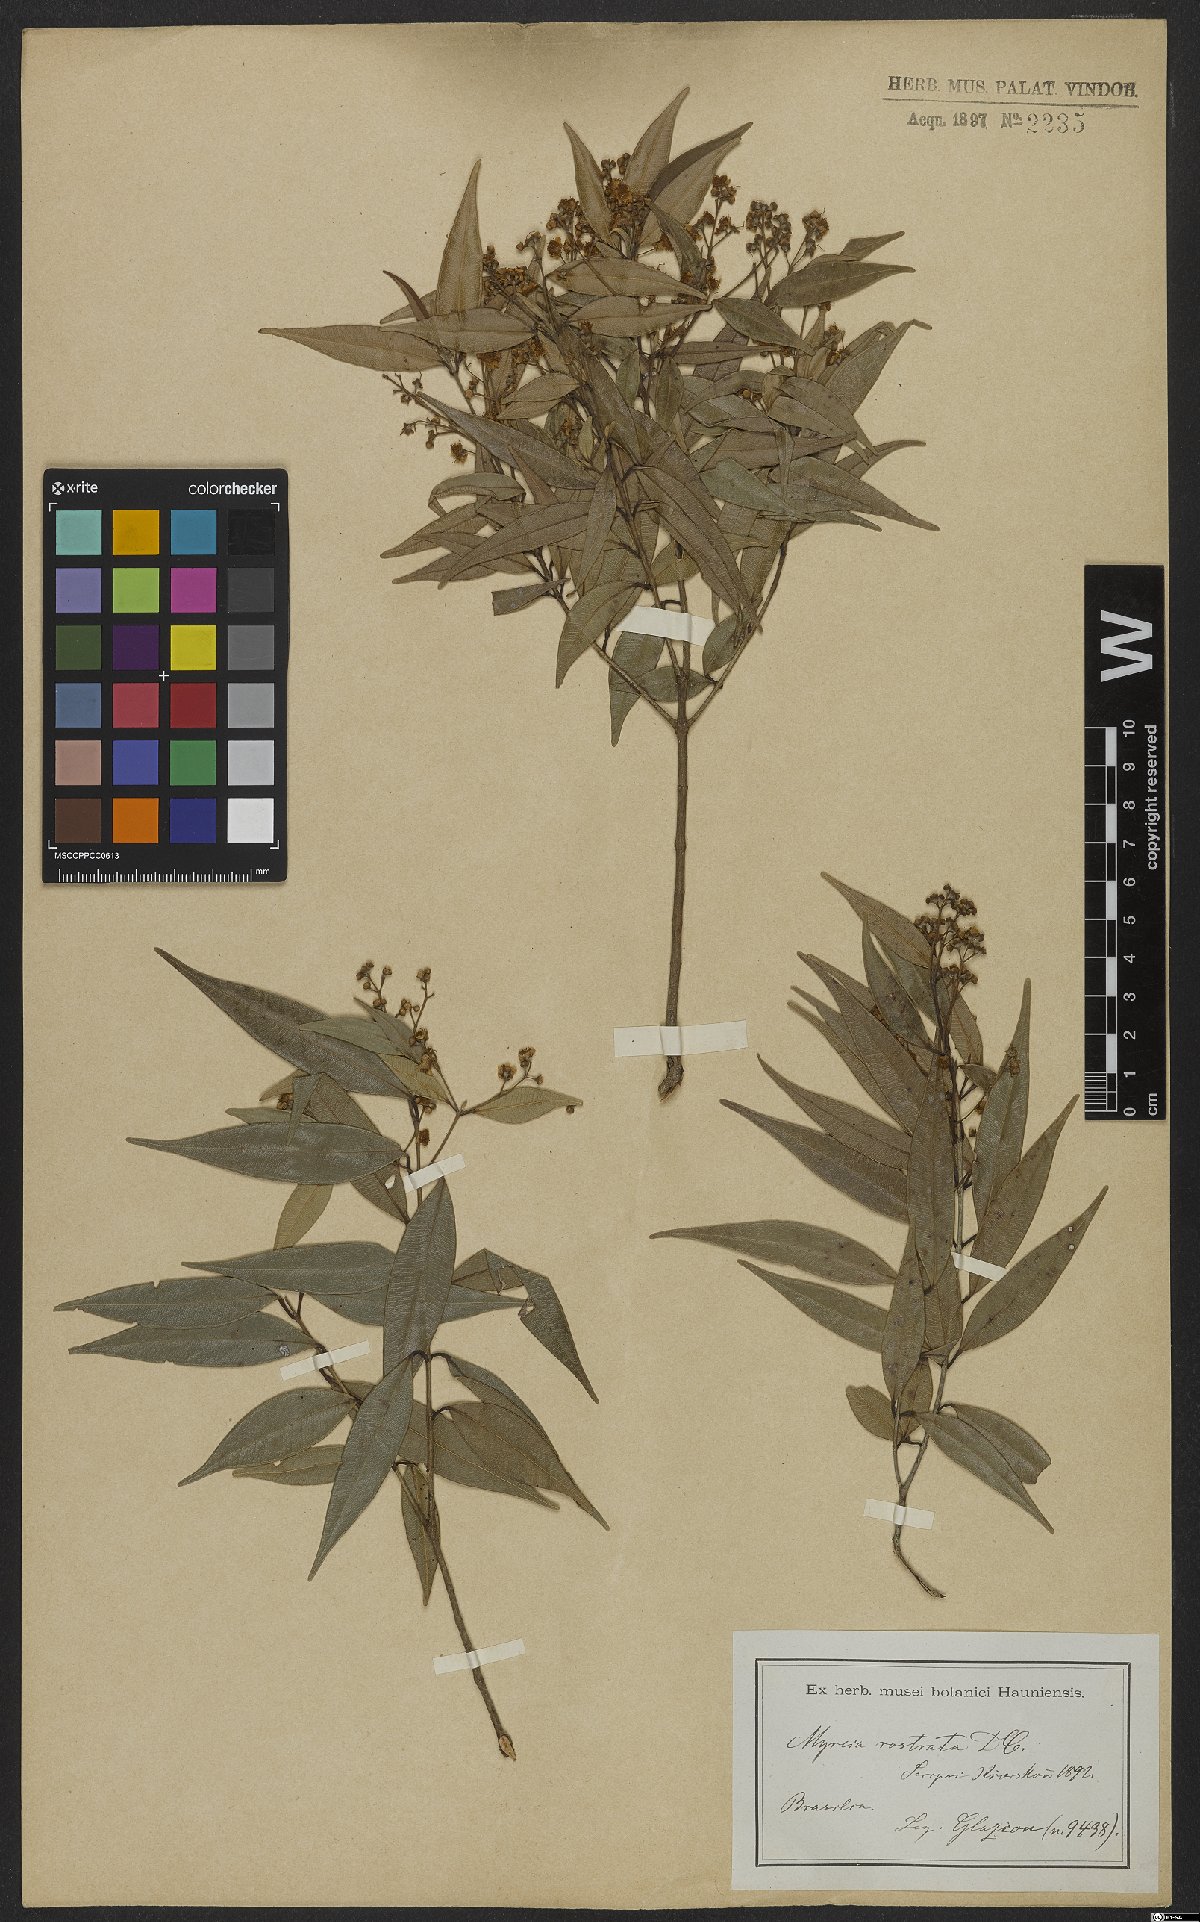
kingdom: Plantae
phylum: Tracheophyta
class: Magnoliopsida
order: Myrtales
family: Myrtaceae
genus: Myrcia
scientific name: Myrcia splendens
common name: Surinam cherry
